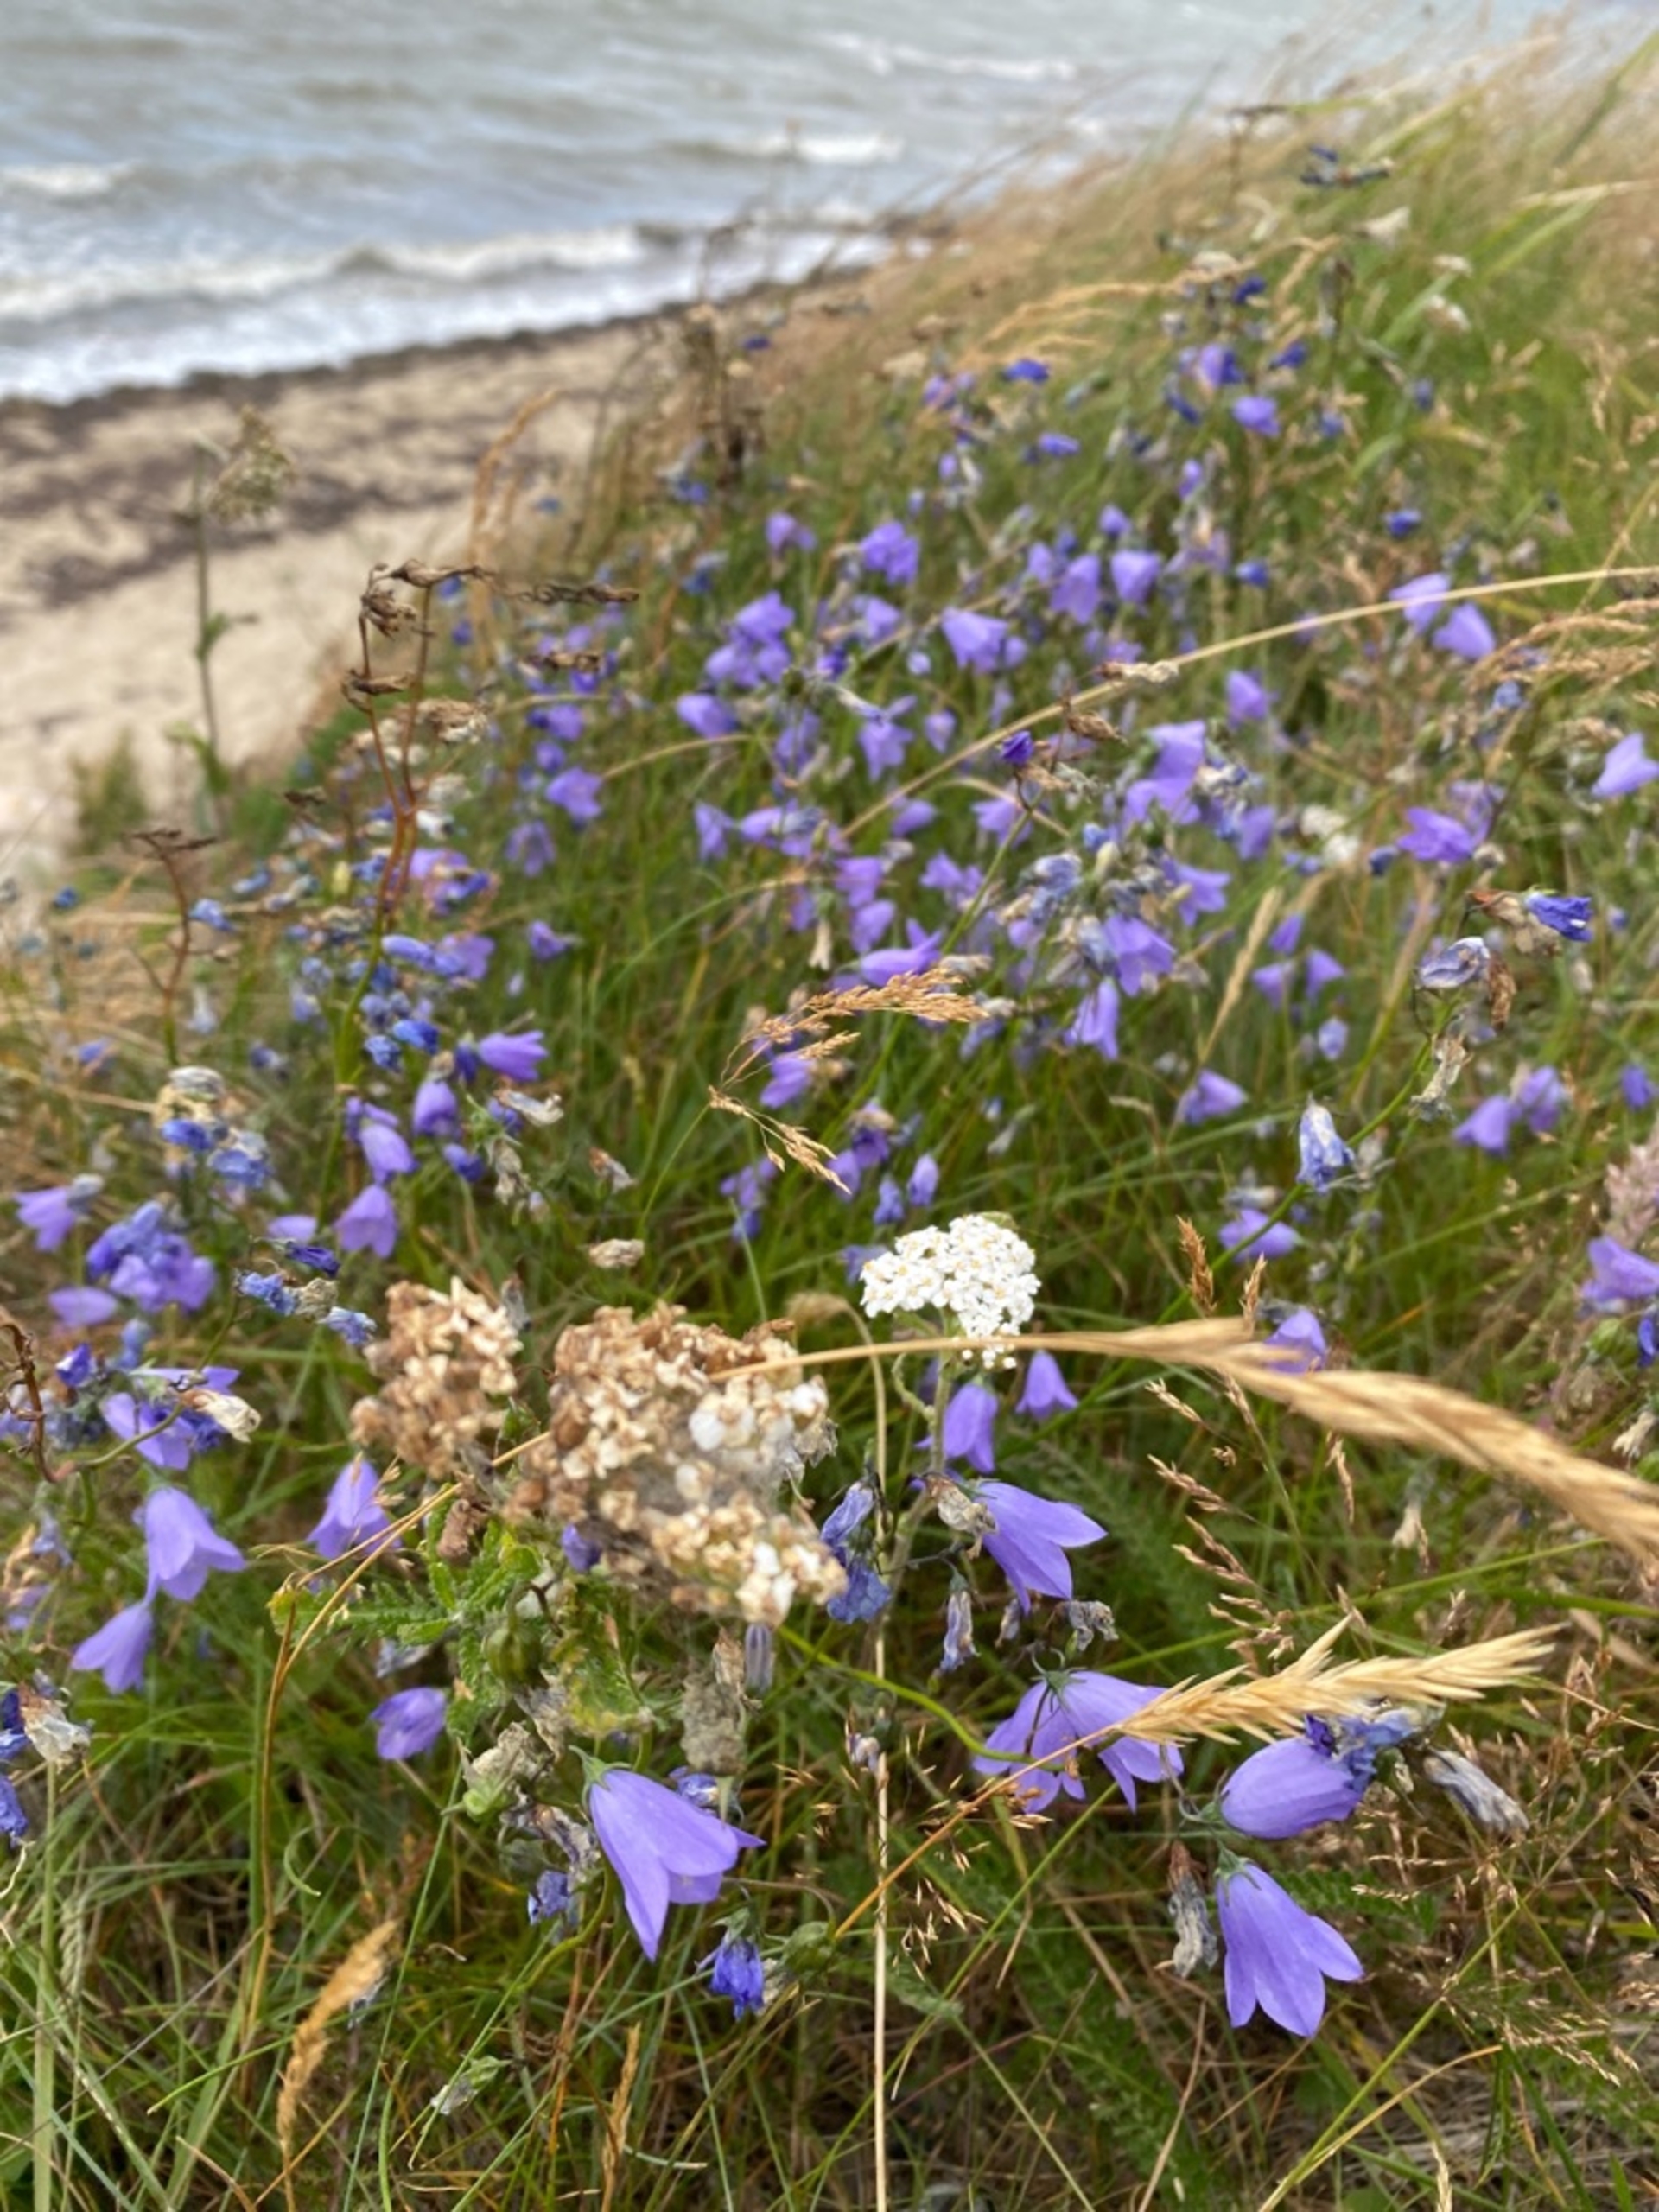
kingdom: Plantae
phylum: Tracheophyta
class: Magnoliopsida
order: Asterales
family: Campanulaceae
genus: Campanula
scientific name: Campanula rotundifolia
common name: Liden klokke
